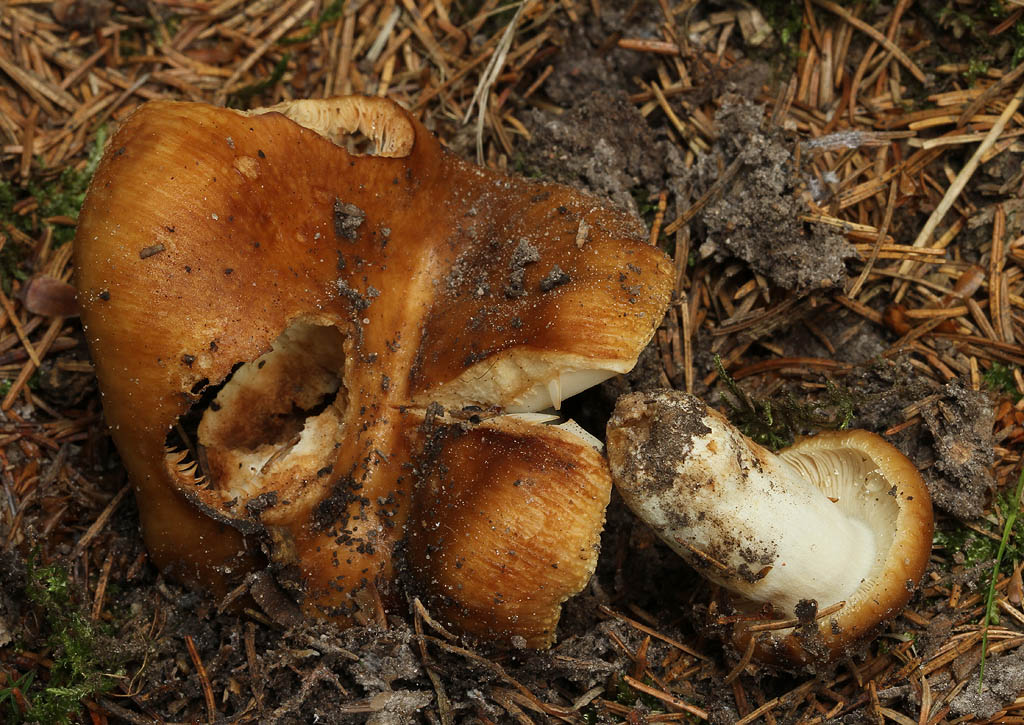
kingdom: Fungi
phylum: Basidiomycota
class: Agaricomycetes
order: Russulales
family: Russulaceae
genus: Russula
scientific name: Russula foetens
